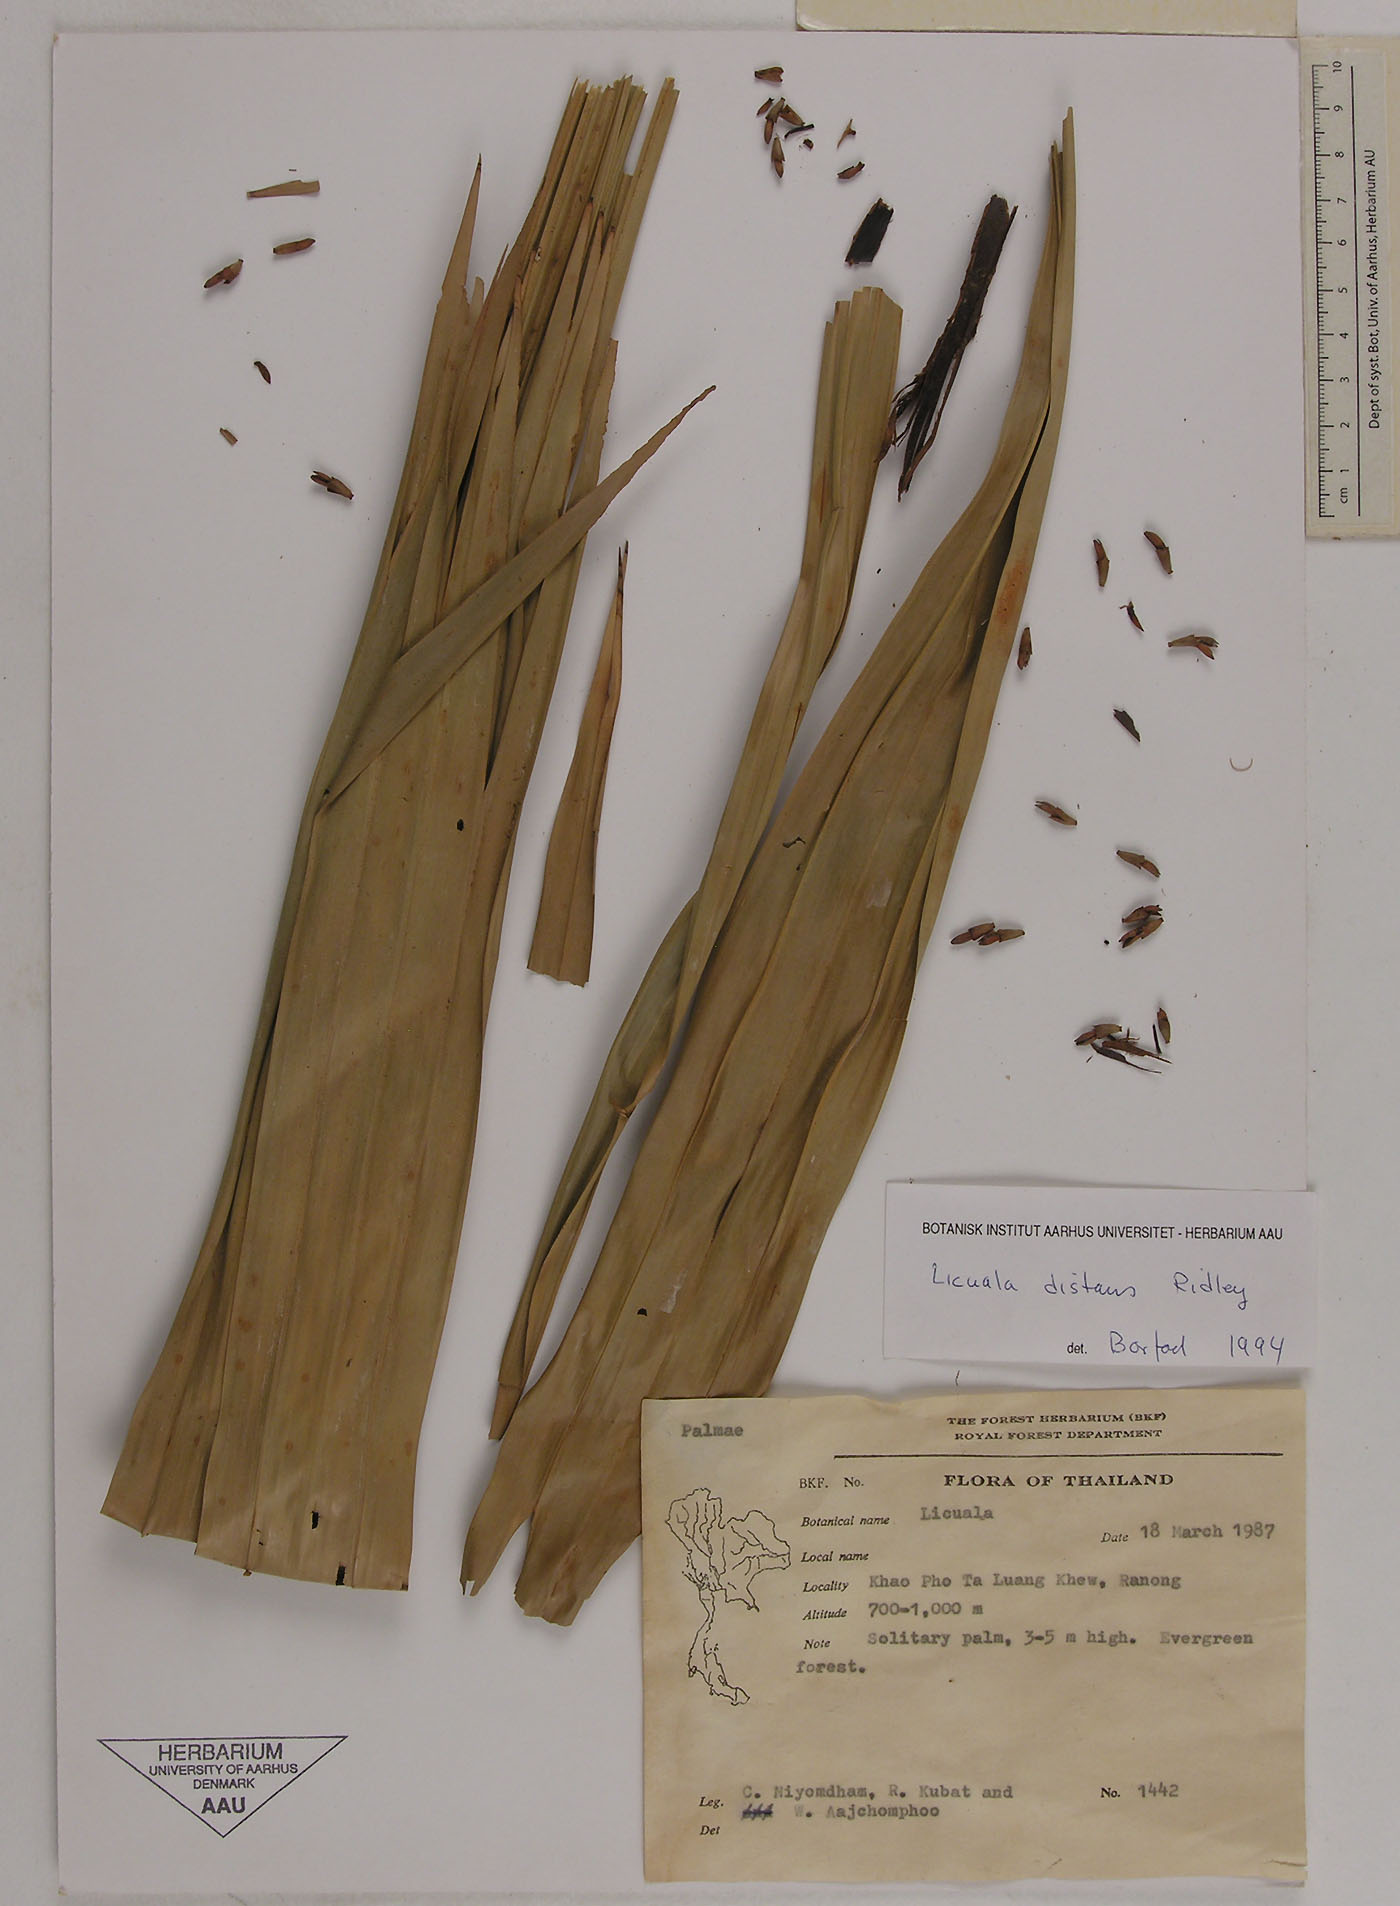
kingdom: Plantae
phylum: Tracheophyta
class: Liliopsida
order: Arecales
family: Arecaceae
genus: Licuala
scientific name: Licuala distans
